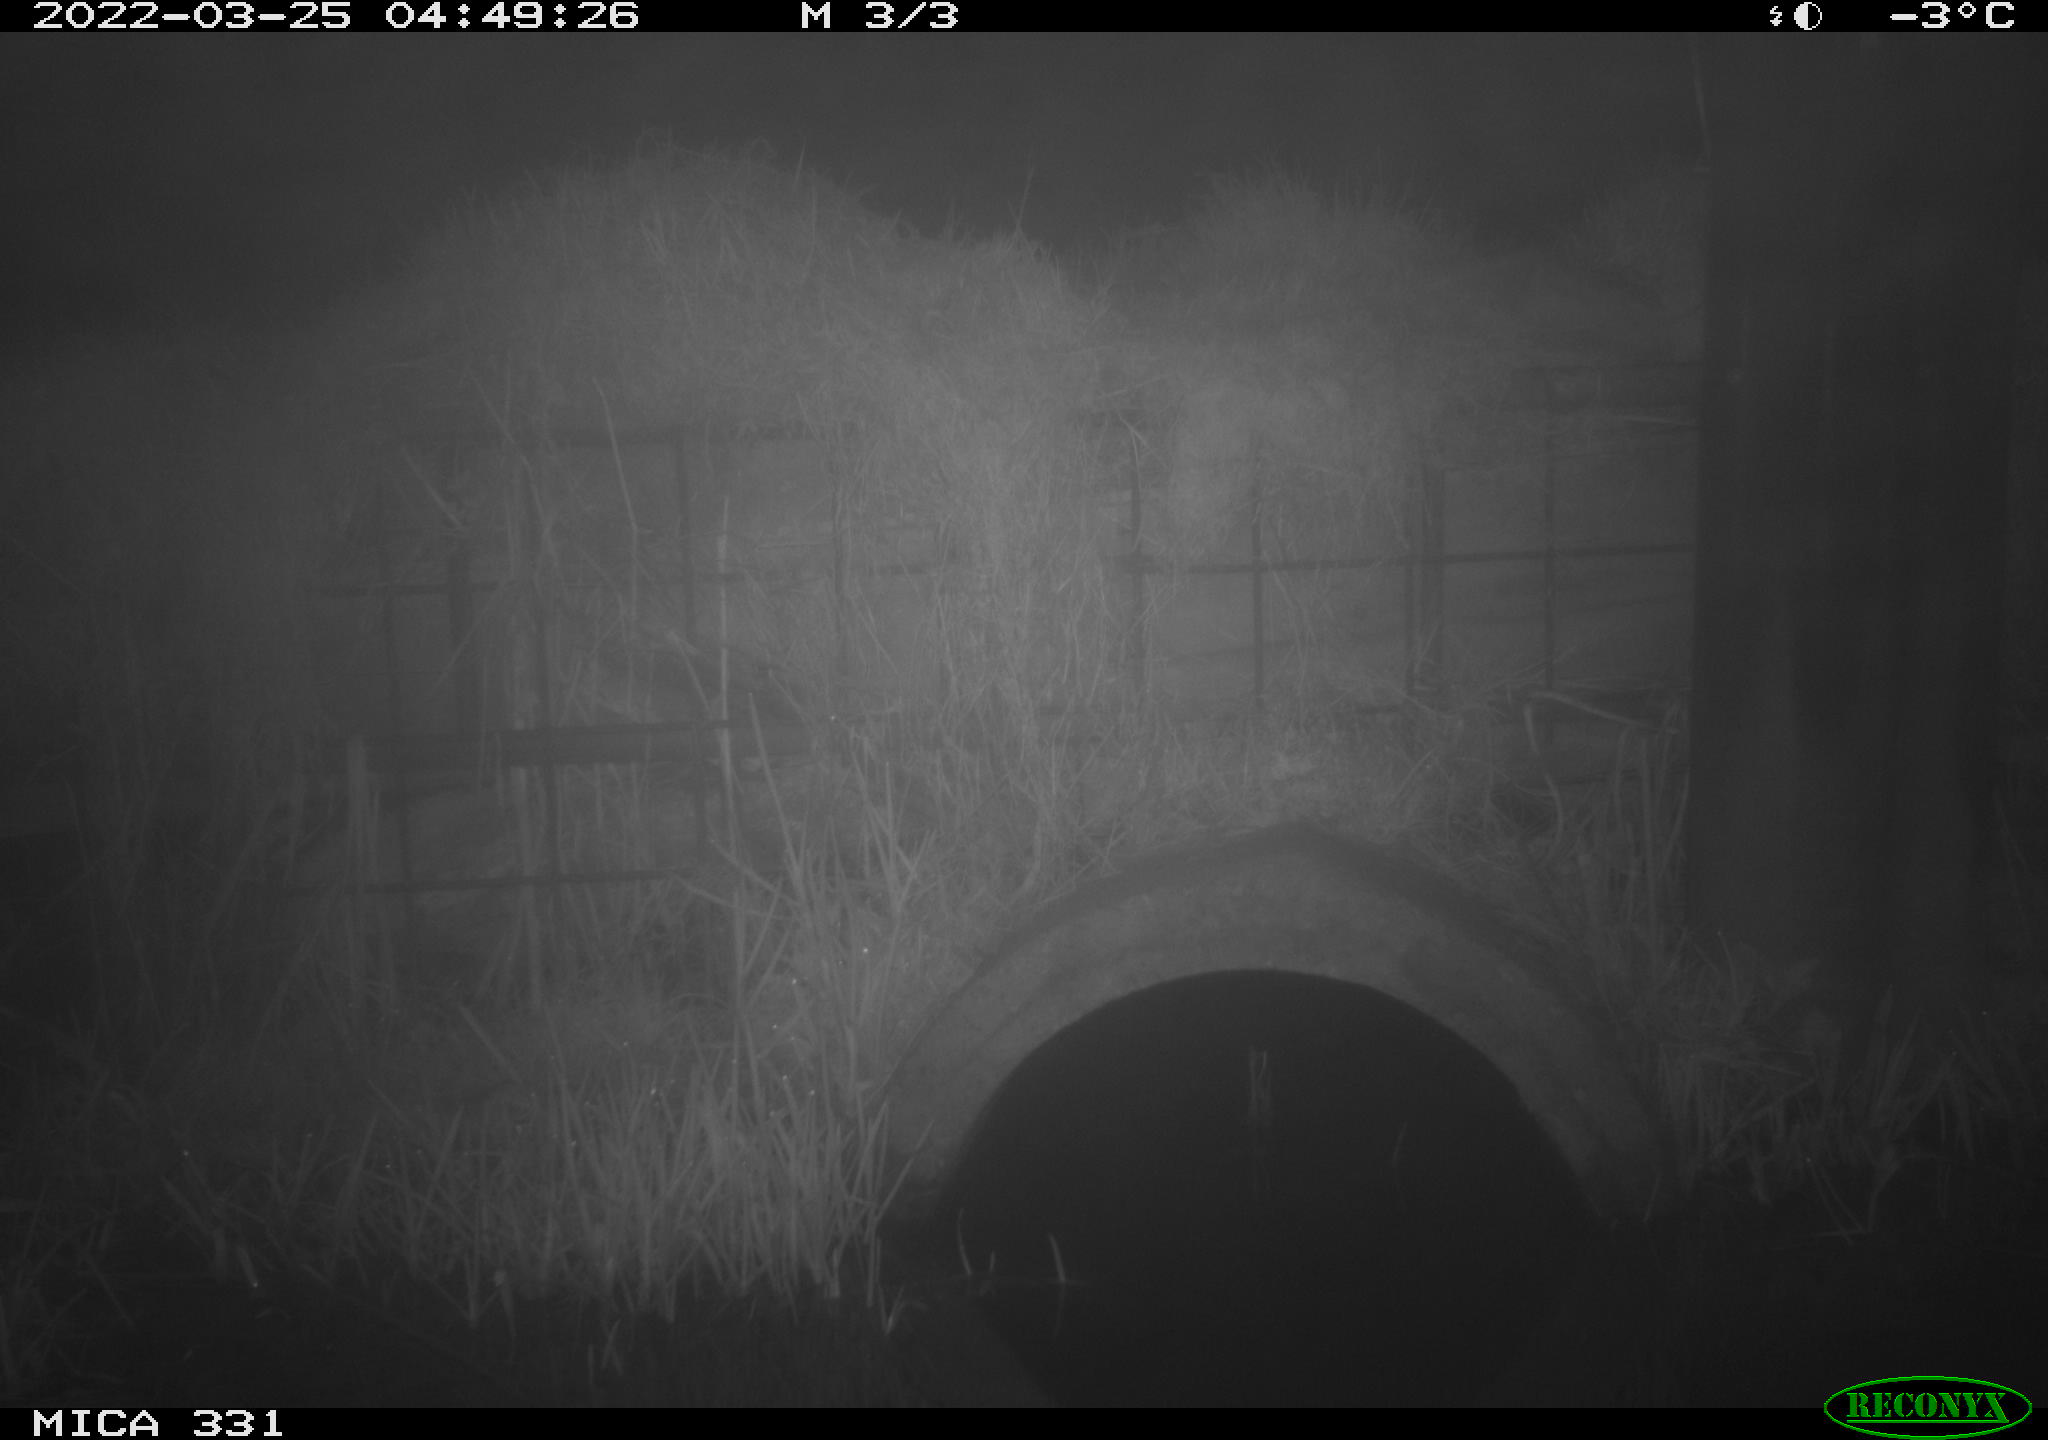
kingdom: Animalia
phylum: Chordata
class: Mammalia
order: Rodentia
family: Muridae
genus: Rattus
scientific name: Rattus norvegicus
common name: Brown rat
